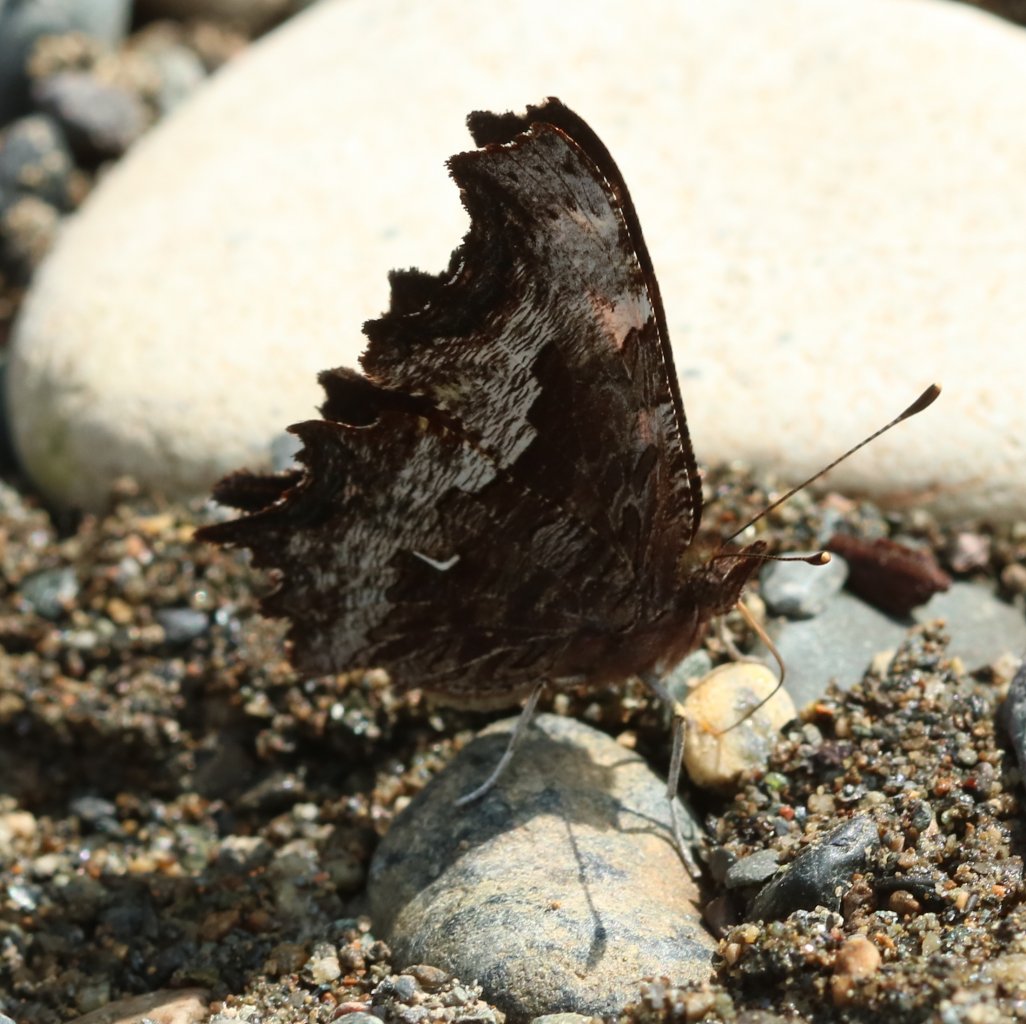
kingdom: Animalia
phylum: Arthropoda
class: Insecta
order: Lepidoptera
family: Nymphalidae
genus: Polygonia
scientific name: Polygonia gracilis
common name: Hoary Comma
